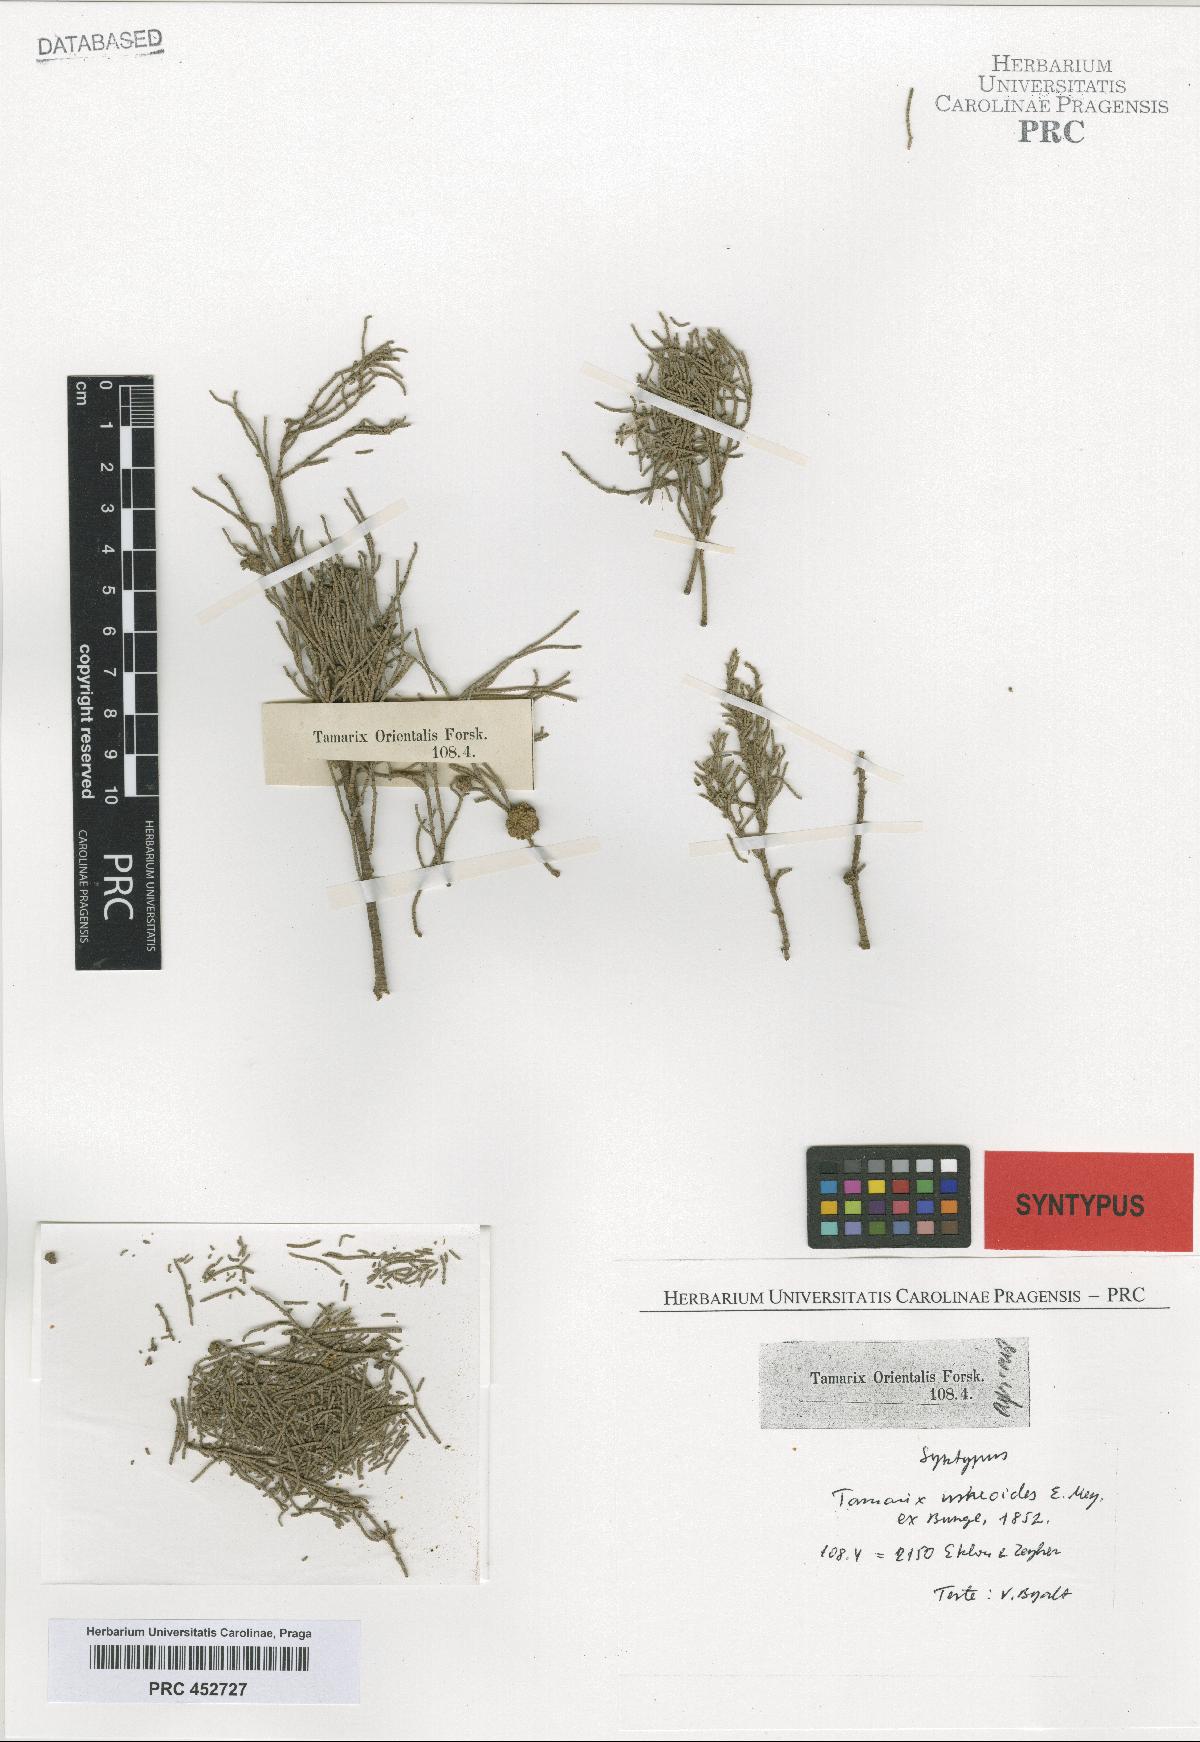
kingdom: Plantae
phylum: Tracheophyta
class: Magnoliopsida
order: Caryophyllales
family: Tamaricaceae
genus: Tamarix
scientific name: Tamarix usneoides
